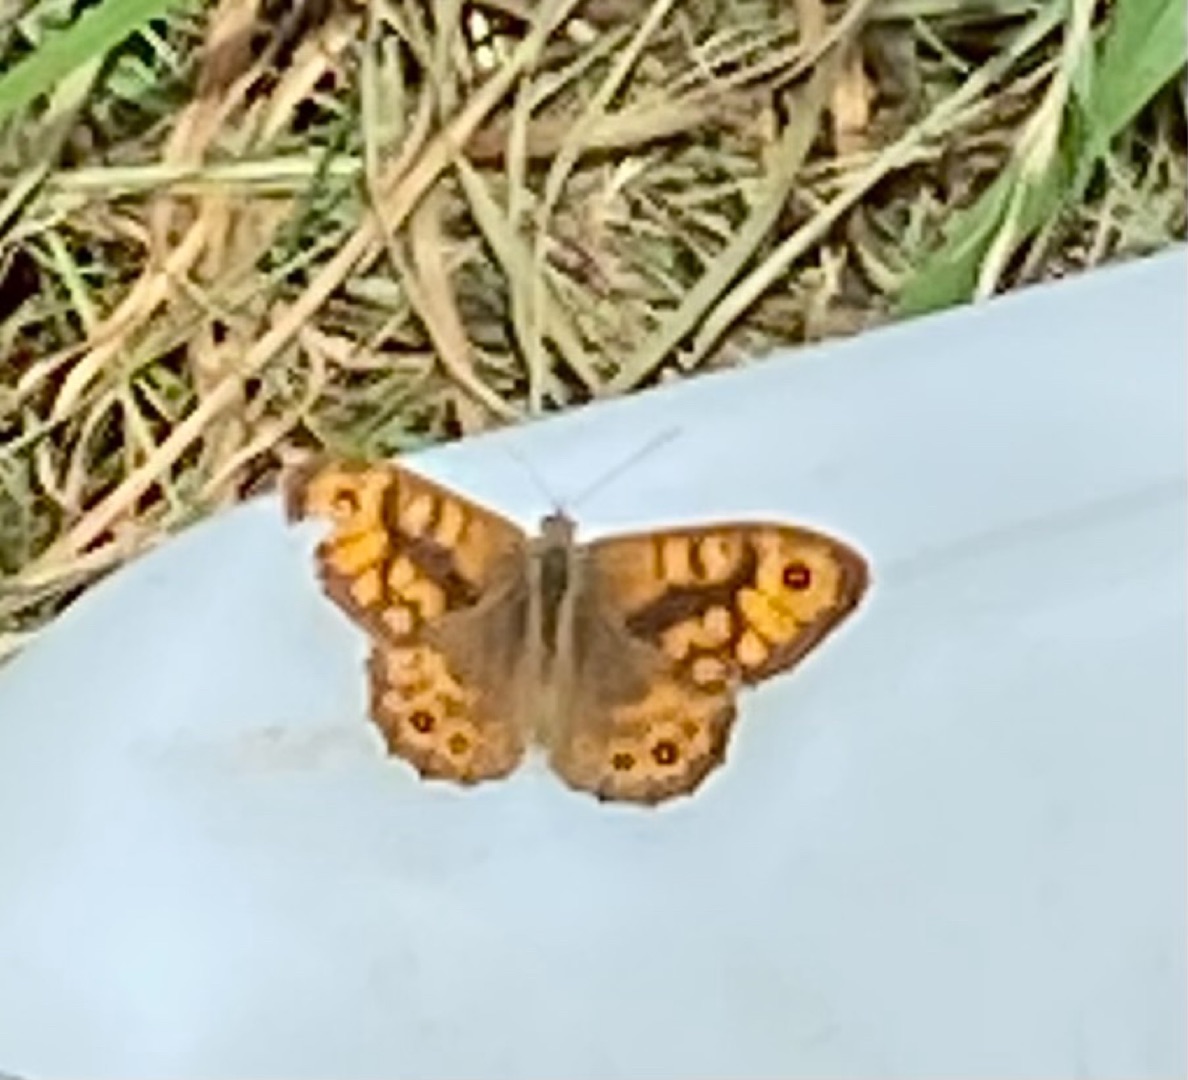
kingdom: Animalia
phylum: Arthropoda
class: Insecta
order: Lepidoptera
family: Nymphalidae
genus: Pararge
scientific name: Pararge Lasiommata megera
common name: Vejrandøje
